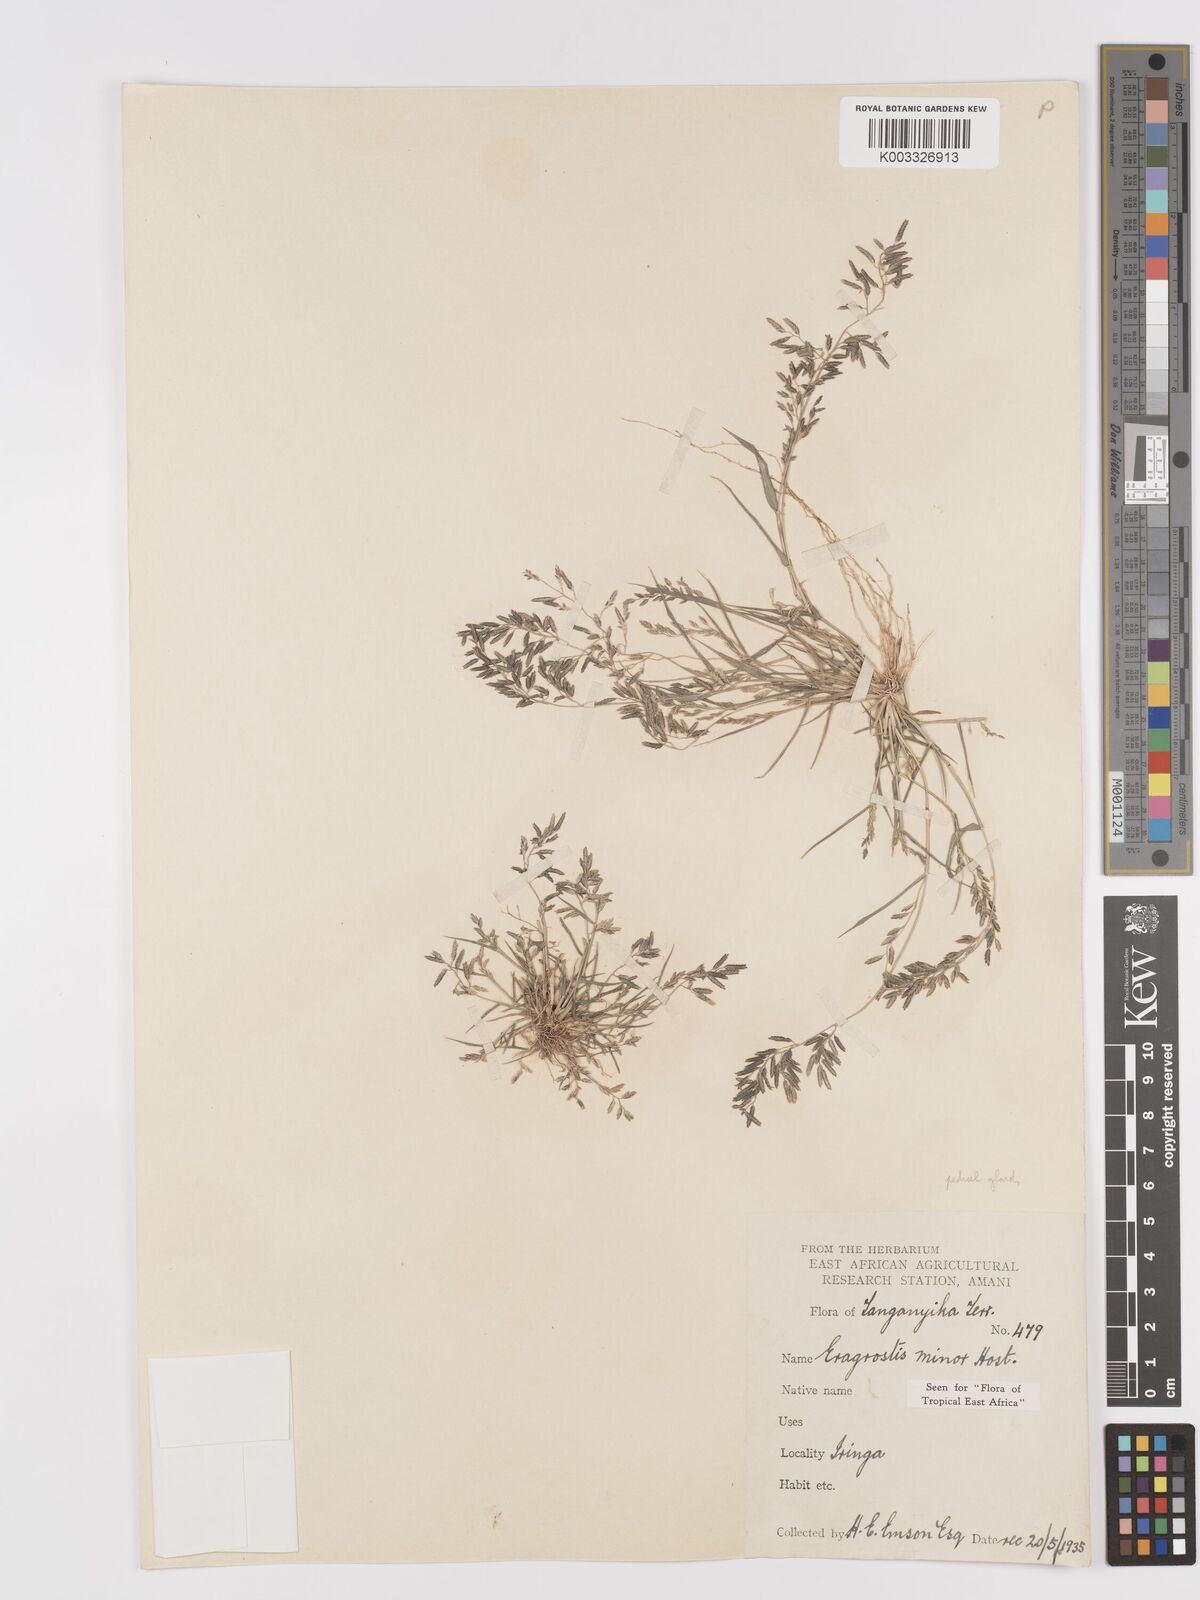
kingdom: Plantae
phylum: Tracheophyta
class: Liliopsida
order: Poales
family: Poaceae
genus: Eragrostis
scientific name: Eragrostis minor
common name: Small love-grass
